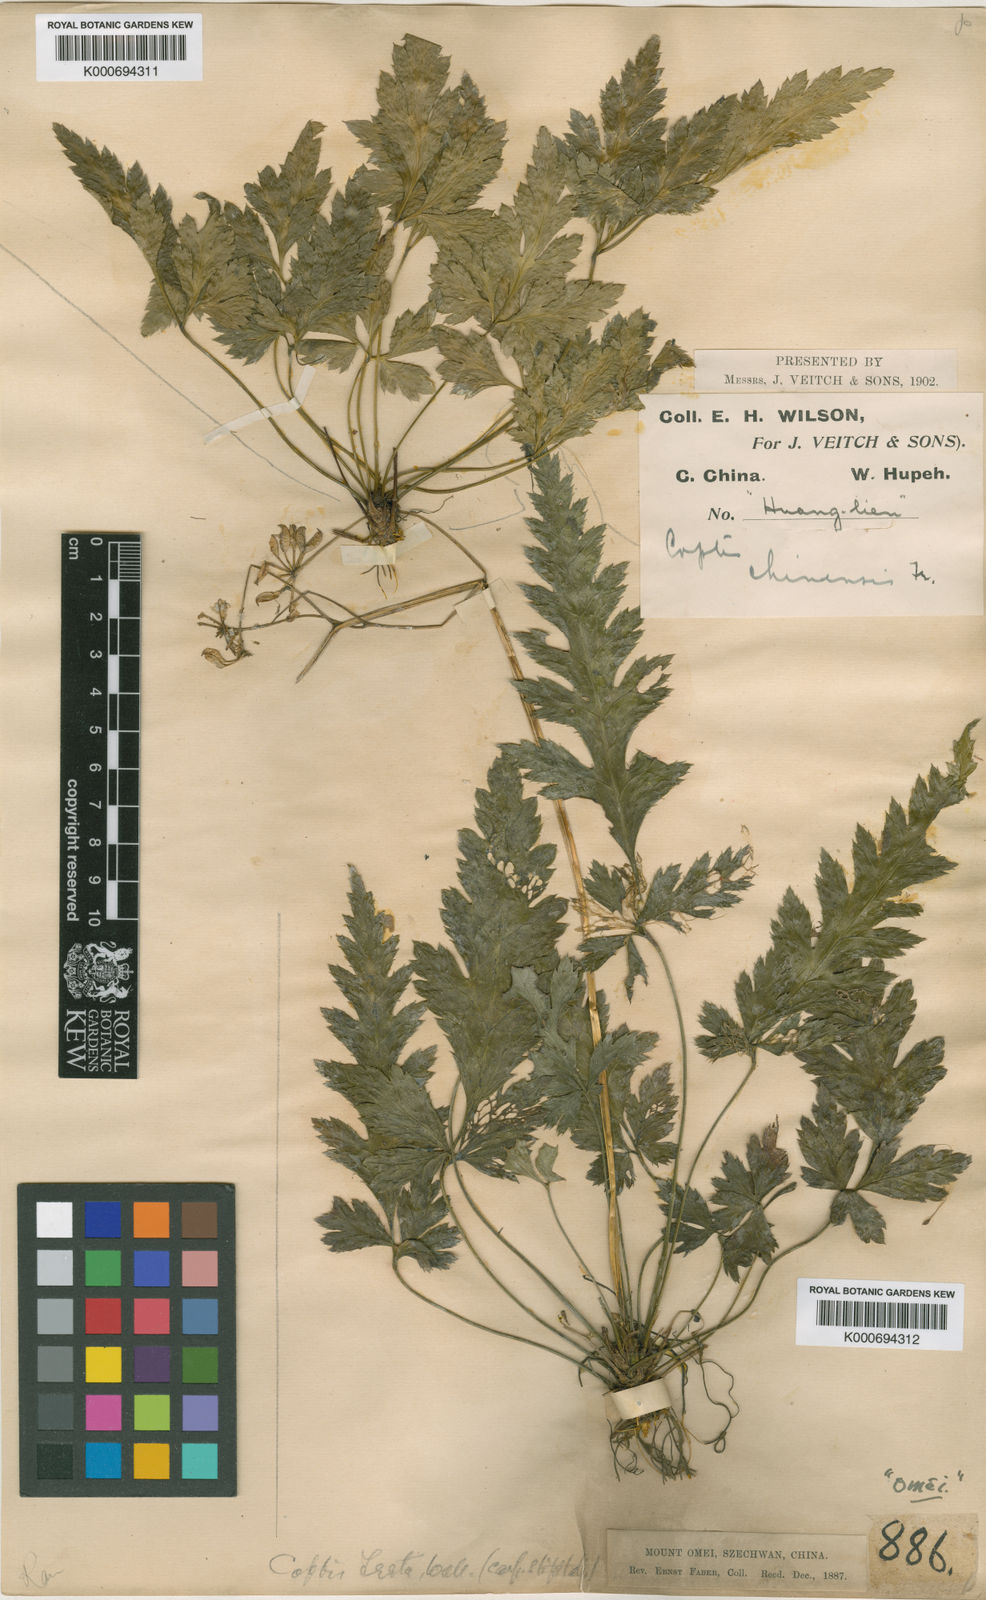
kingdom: Plantae
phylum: Tracheophyta
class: Magnoliopsida
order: Ranunculales
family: Ranunculaceae
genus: Coptis
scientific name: Coptis chinensis
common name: Chinese goldthread
